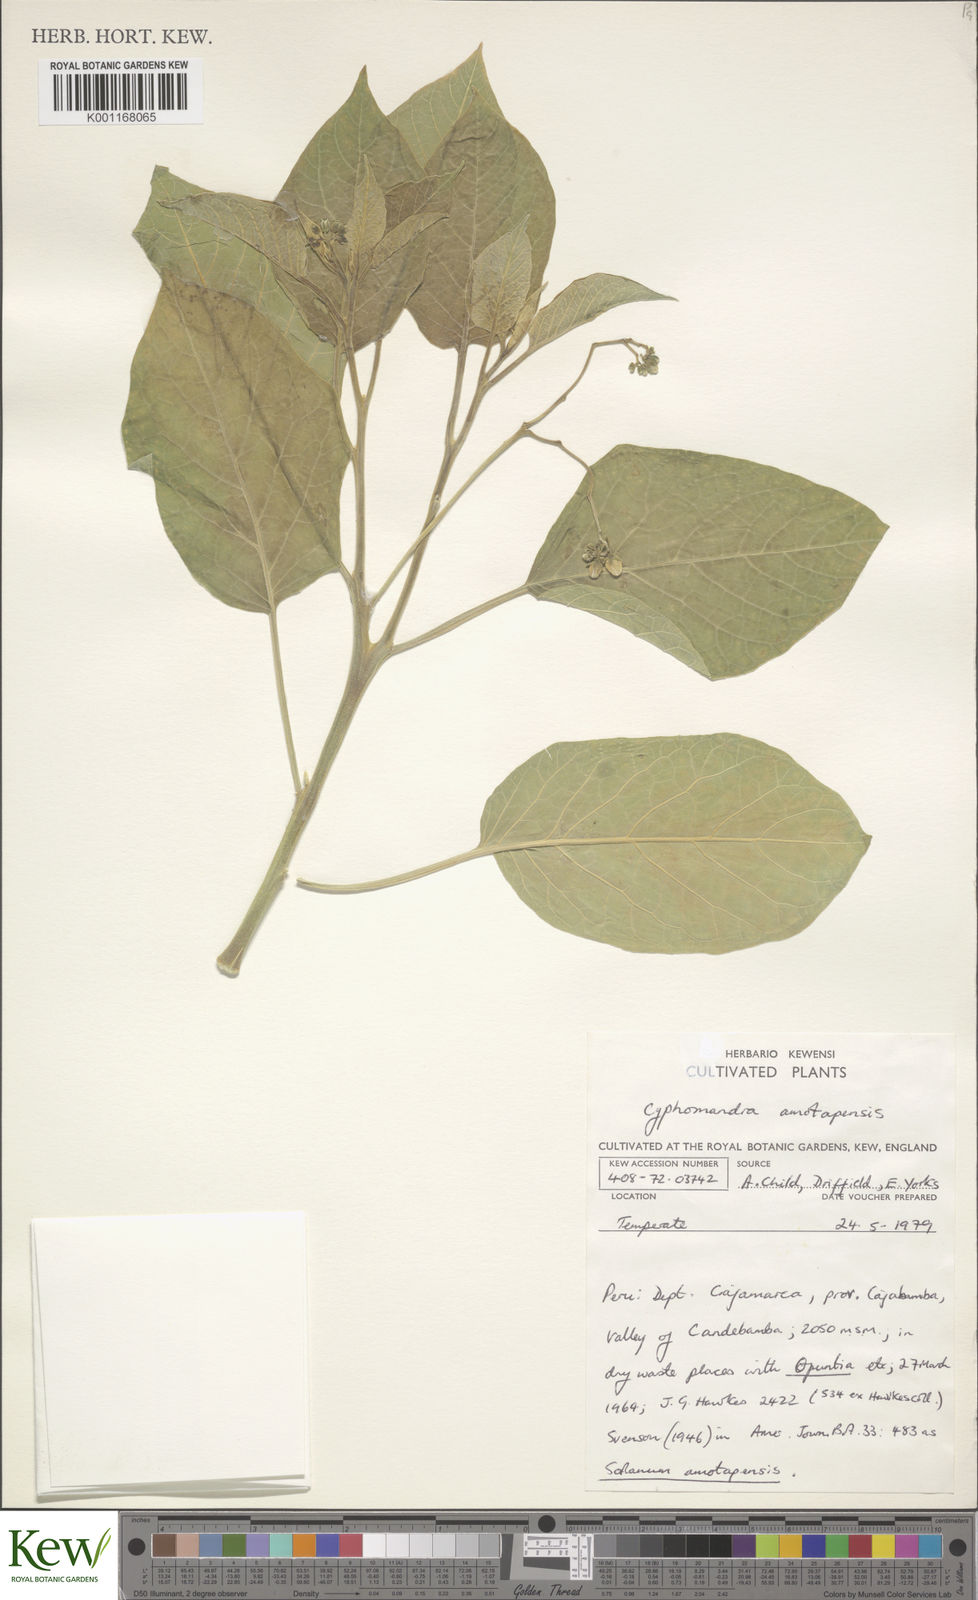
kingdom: Plantae
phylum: Tracheophyta
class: Magnoliopsida
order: Solanales
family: Solanaceae
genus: Solanum
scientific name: Solanum amotapense
